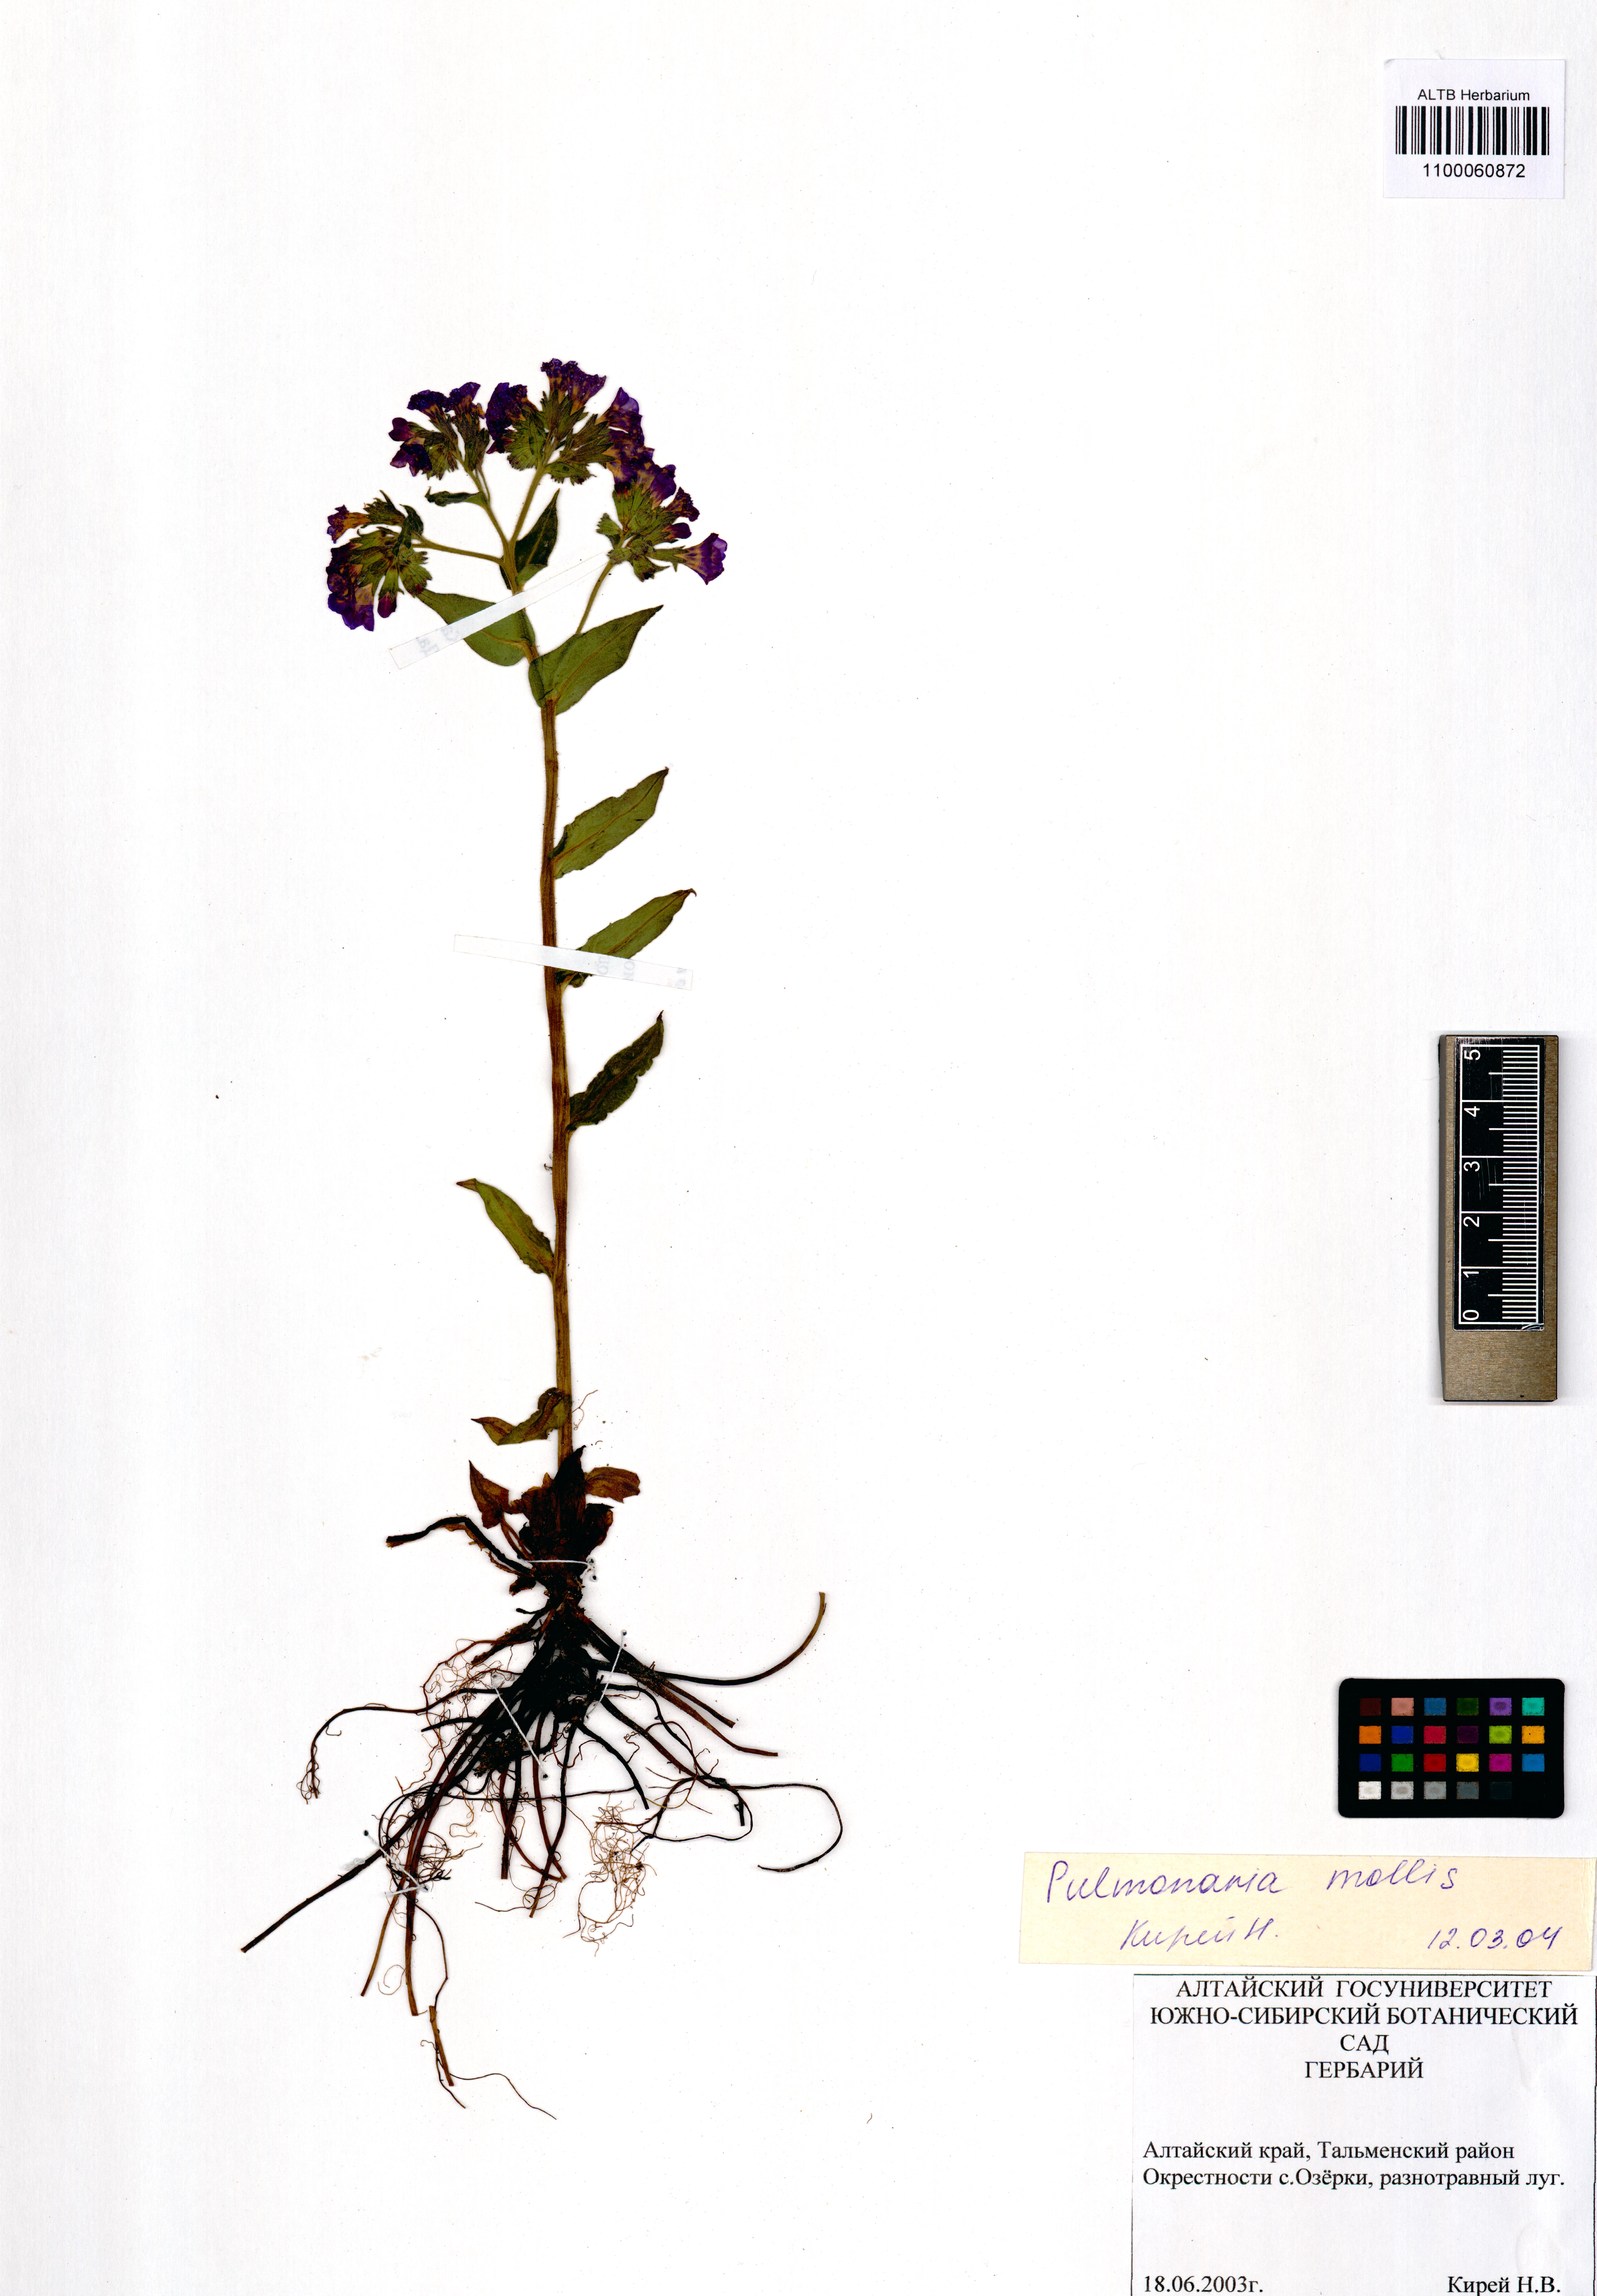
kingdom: Plantae
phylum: Tracheophyta
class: Magnoliopsida
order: Boraginales
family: Boraginaceae
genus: Pulmonaria
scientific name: Pulmonaria mollis
